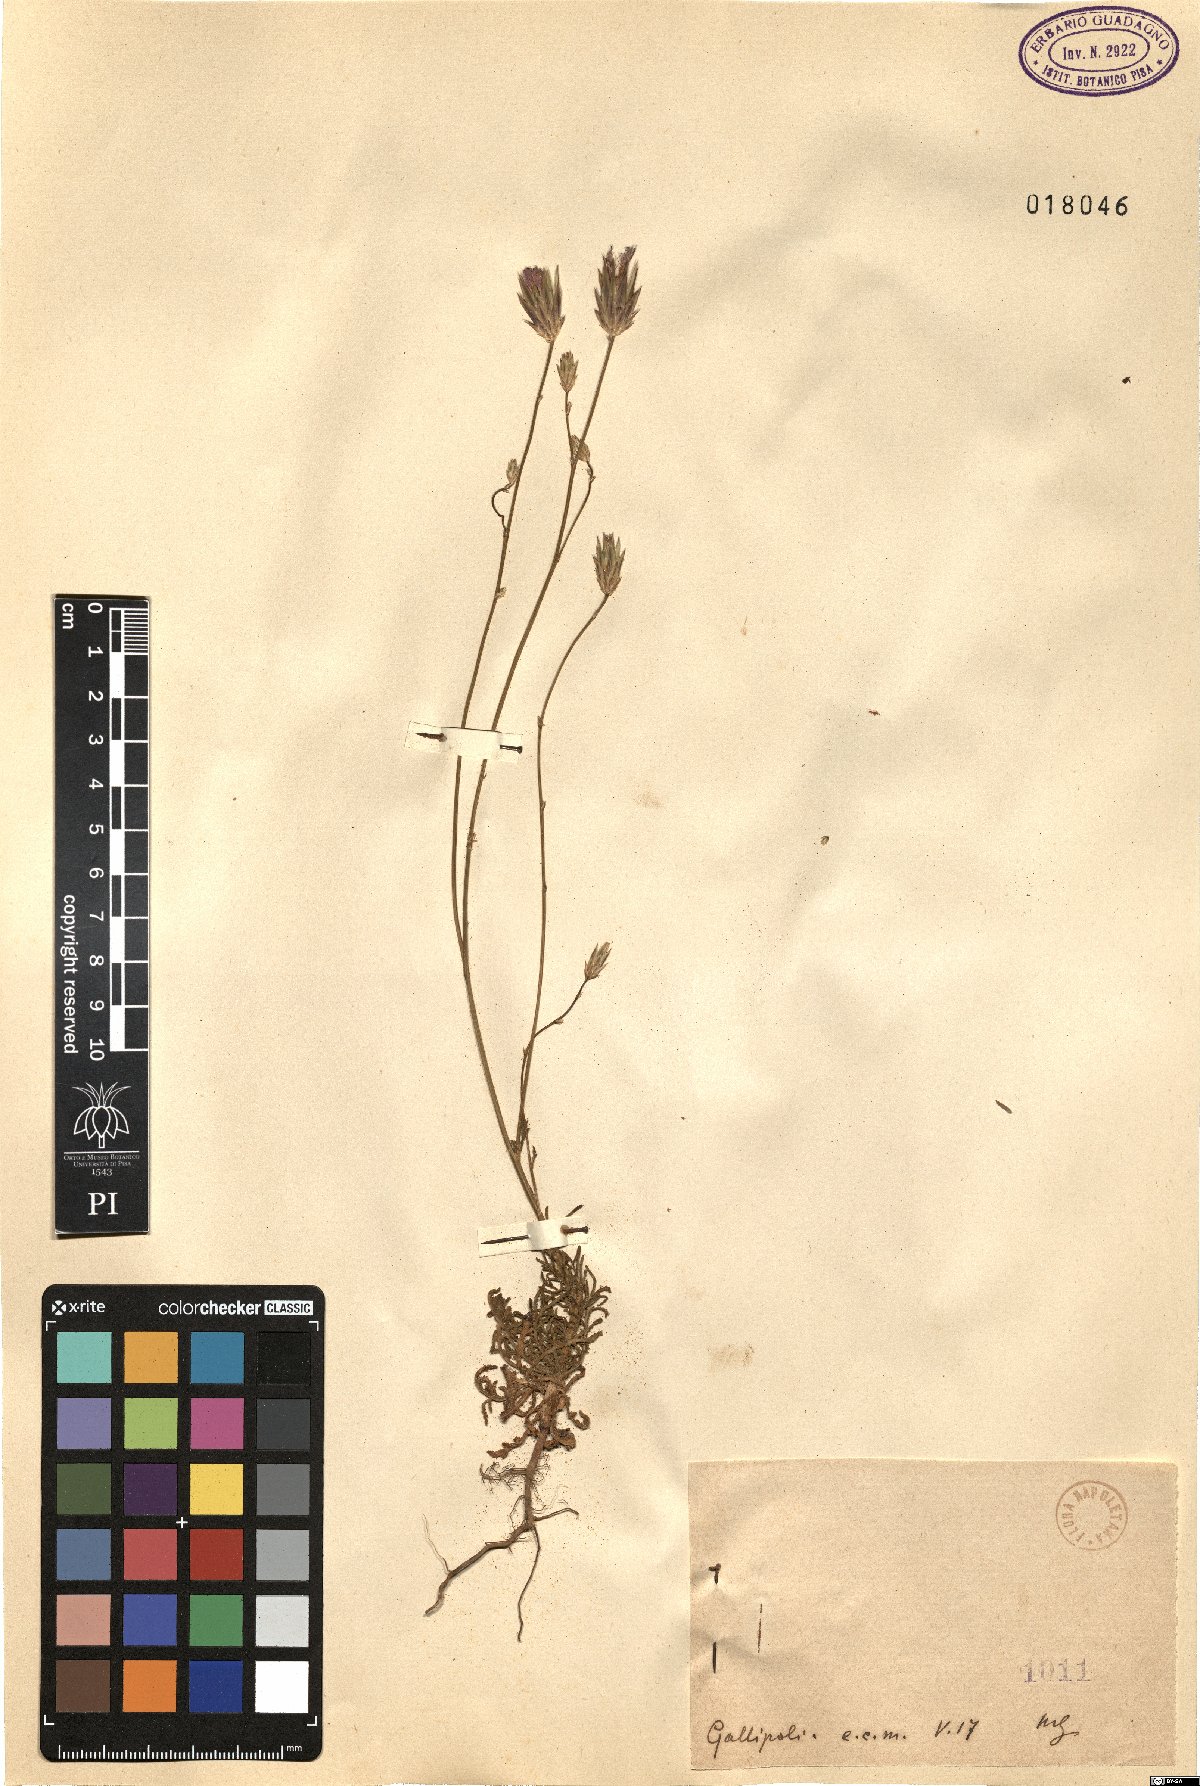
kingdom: Plantae
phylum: Tracheophyta
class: Magnoliopsida
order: Asterales
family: Asteraceae
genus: Crupina
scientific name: Crupina
